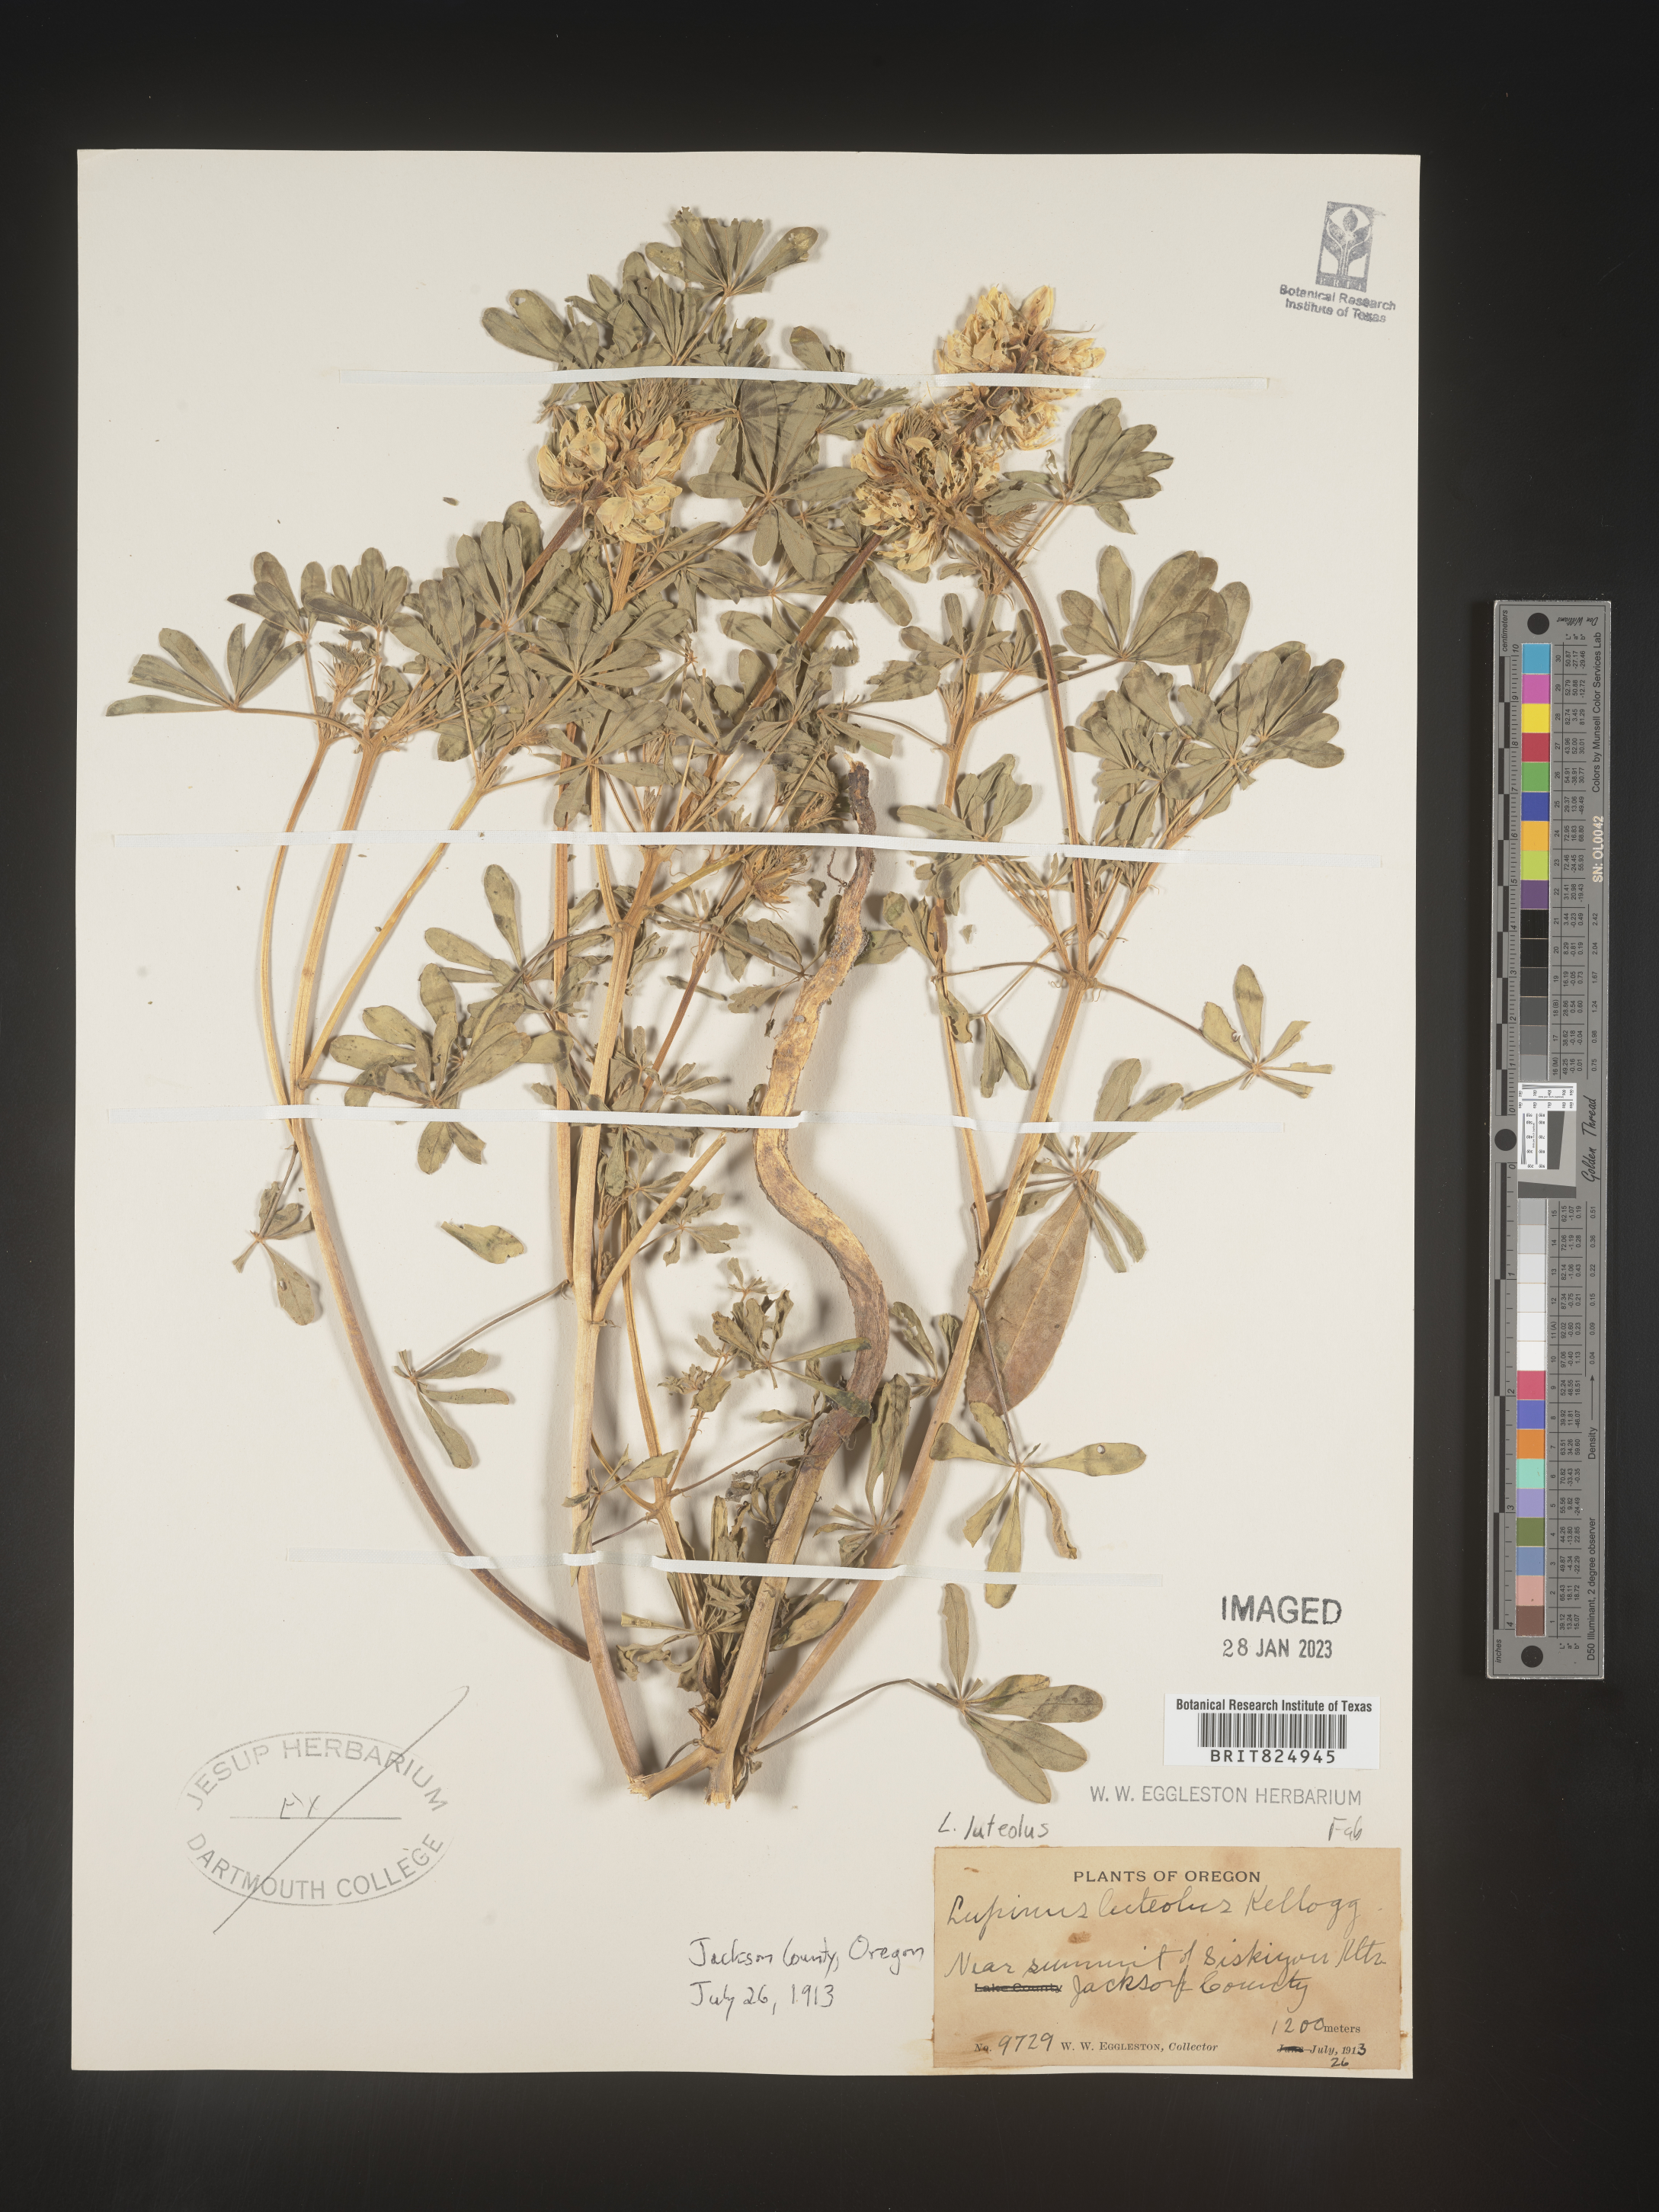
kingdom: Plantae
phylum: Tracheophyta
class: Magnoliopsida
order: Fabales
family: Fabaceae
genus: Lupinus
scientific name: Lupinus
